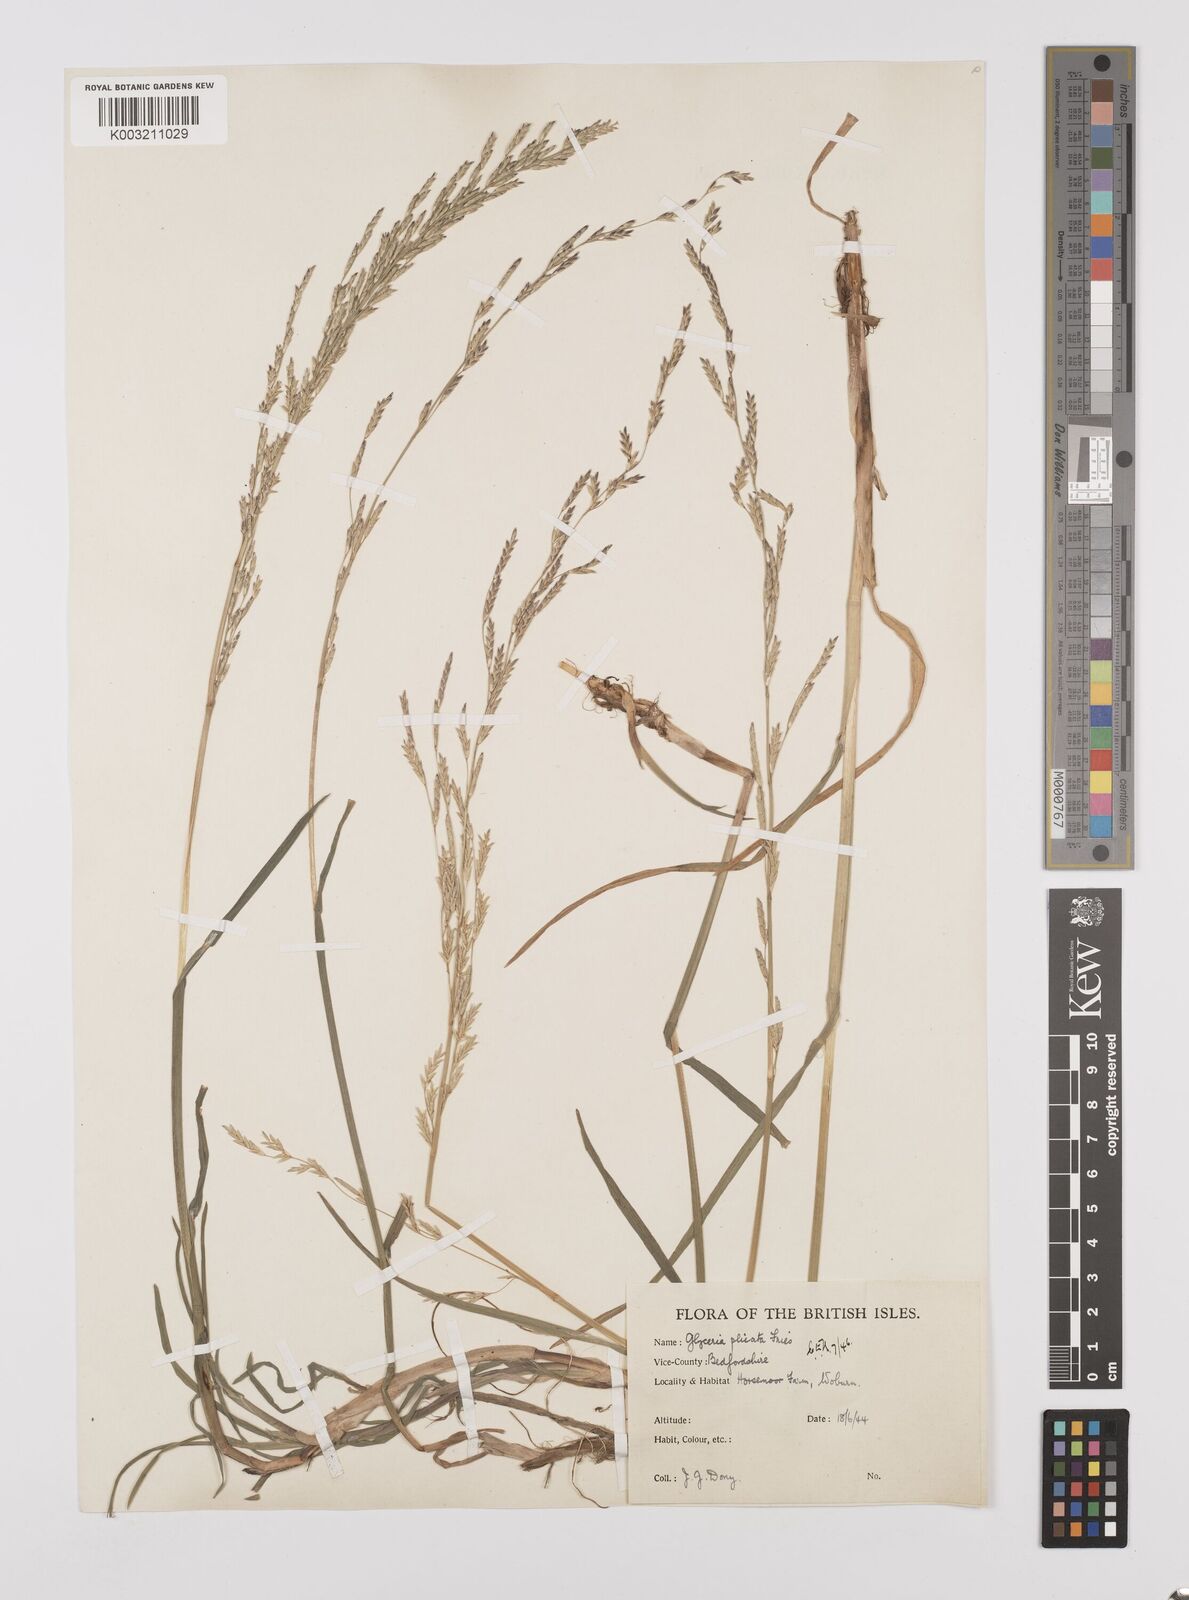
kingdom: Plantae
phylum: Tracheophyta
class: Liliopsida
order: Poales
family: Poaceae
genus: Glyceria
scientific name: Glyceria notata
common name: Plicate sweet-grass
